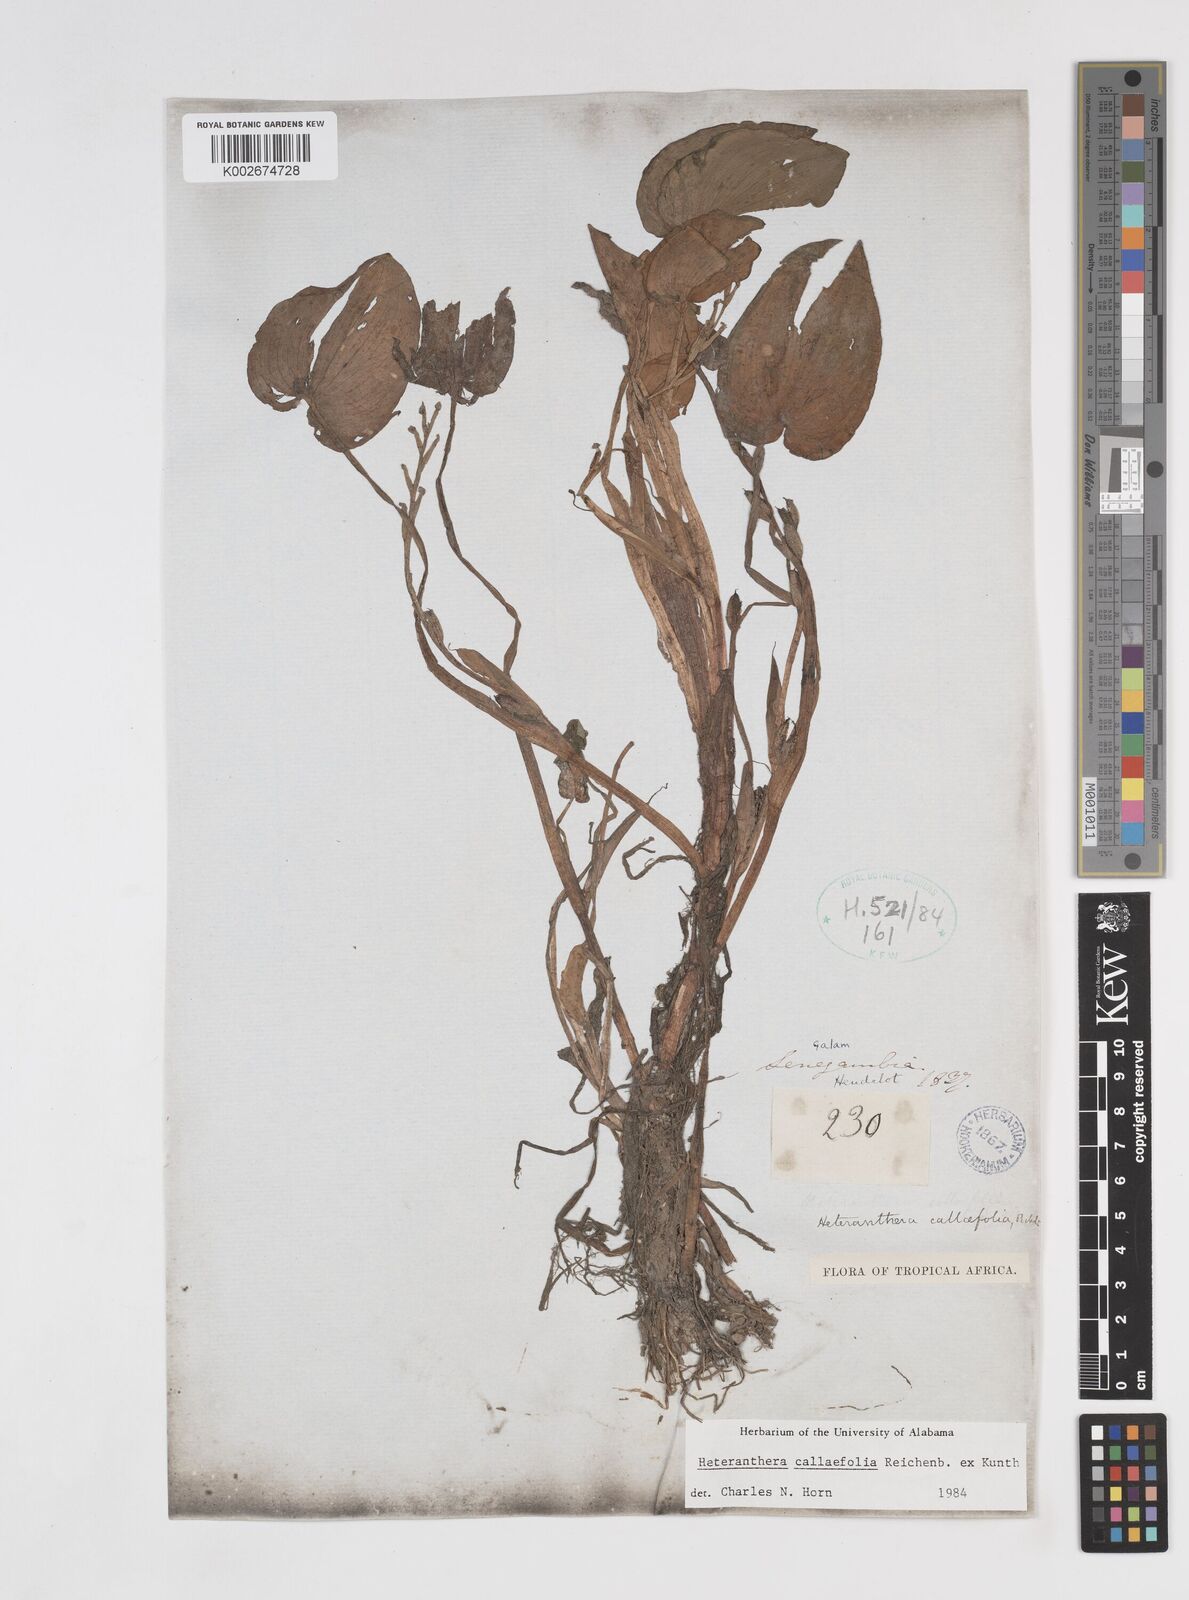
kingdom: Plantae
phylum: Tracheophyta
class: Liliopsida
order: Commelinales
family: Pontederiaceae
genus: Heteranthera
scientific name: Heteranthera callifolia
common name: Mud plantain
